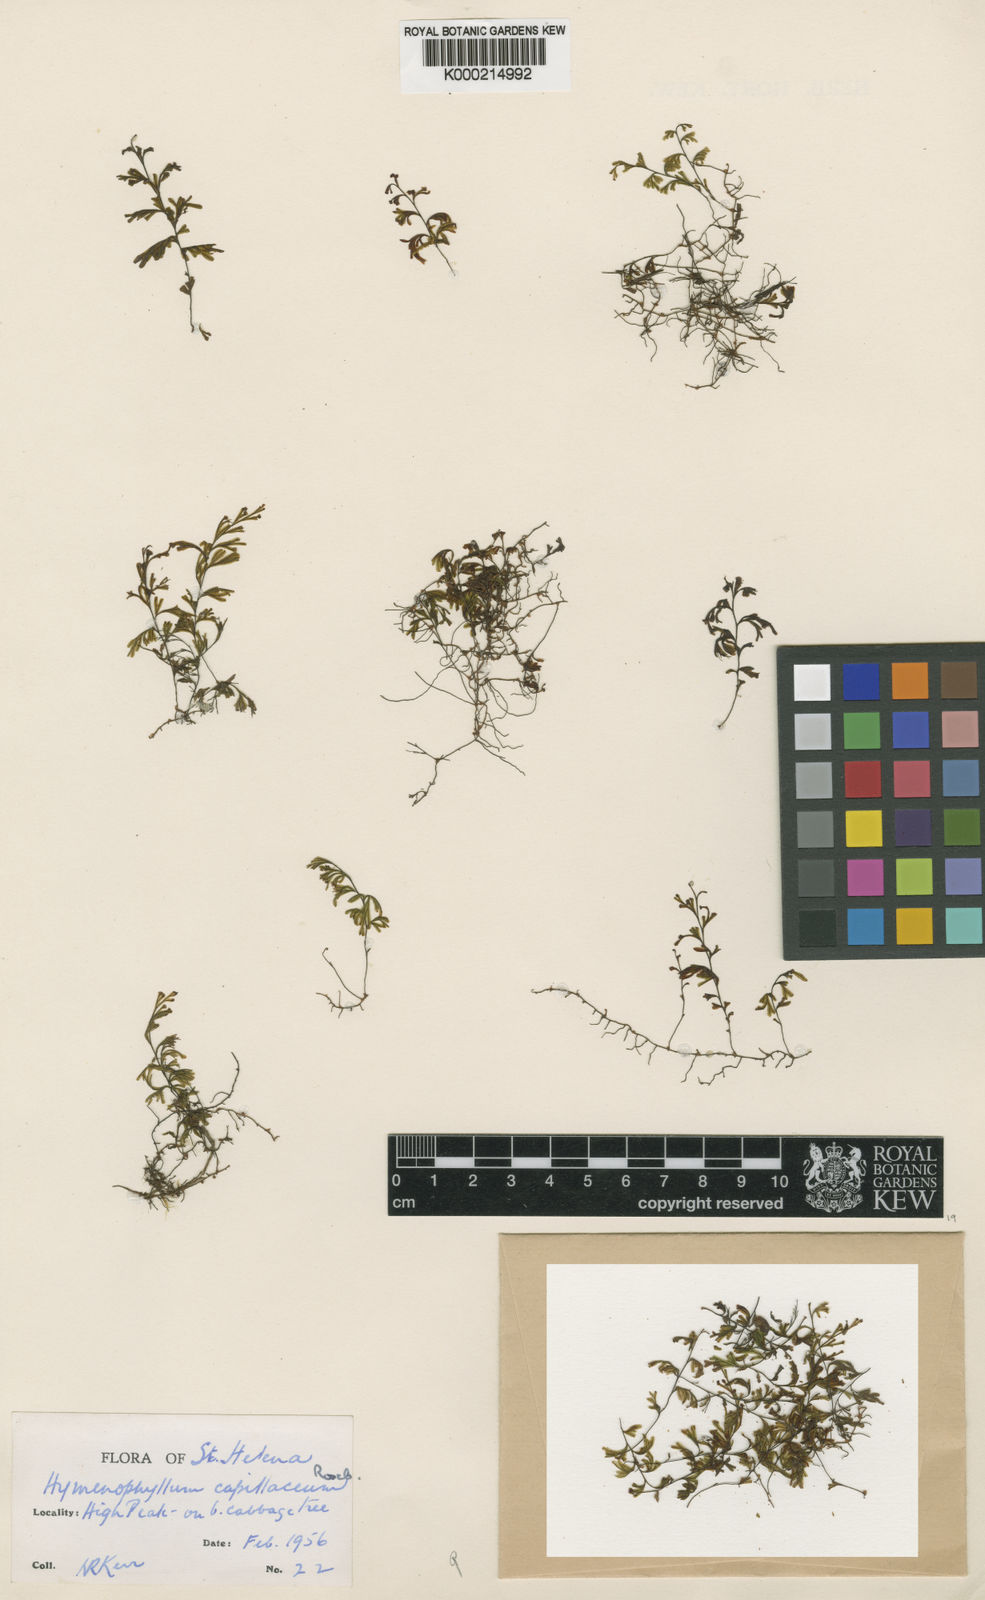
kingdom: Plantae
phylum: Tracheophyta
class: Polypodiopsida
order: Hymenophyllales
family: Hymenophyllaceae
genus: Hymenophyllum
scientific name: Hymenophyllum capillaceum
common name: St helena filmy fern
